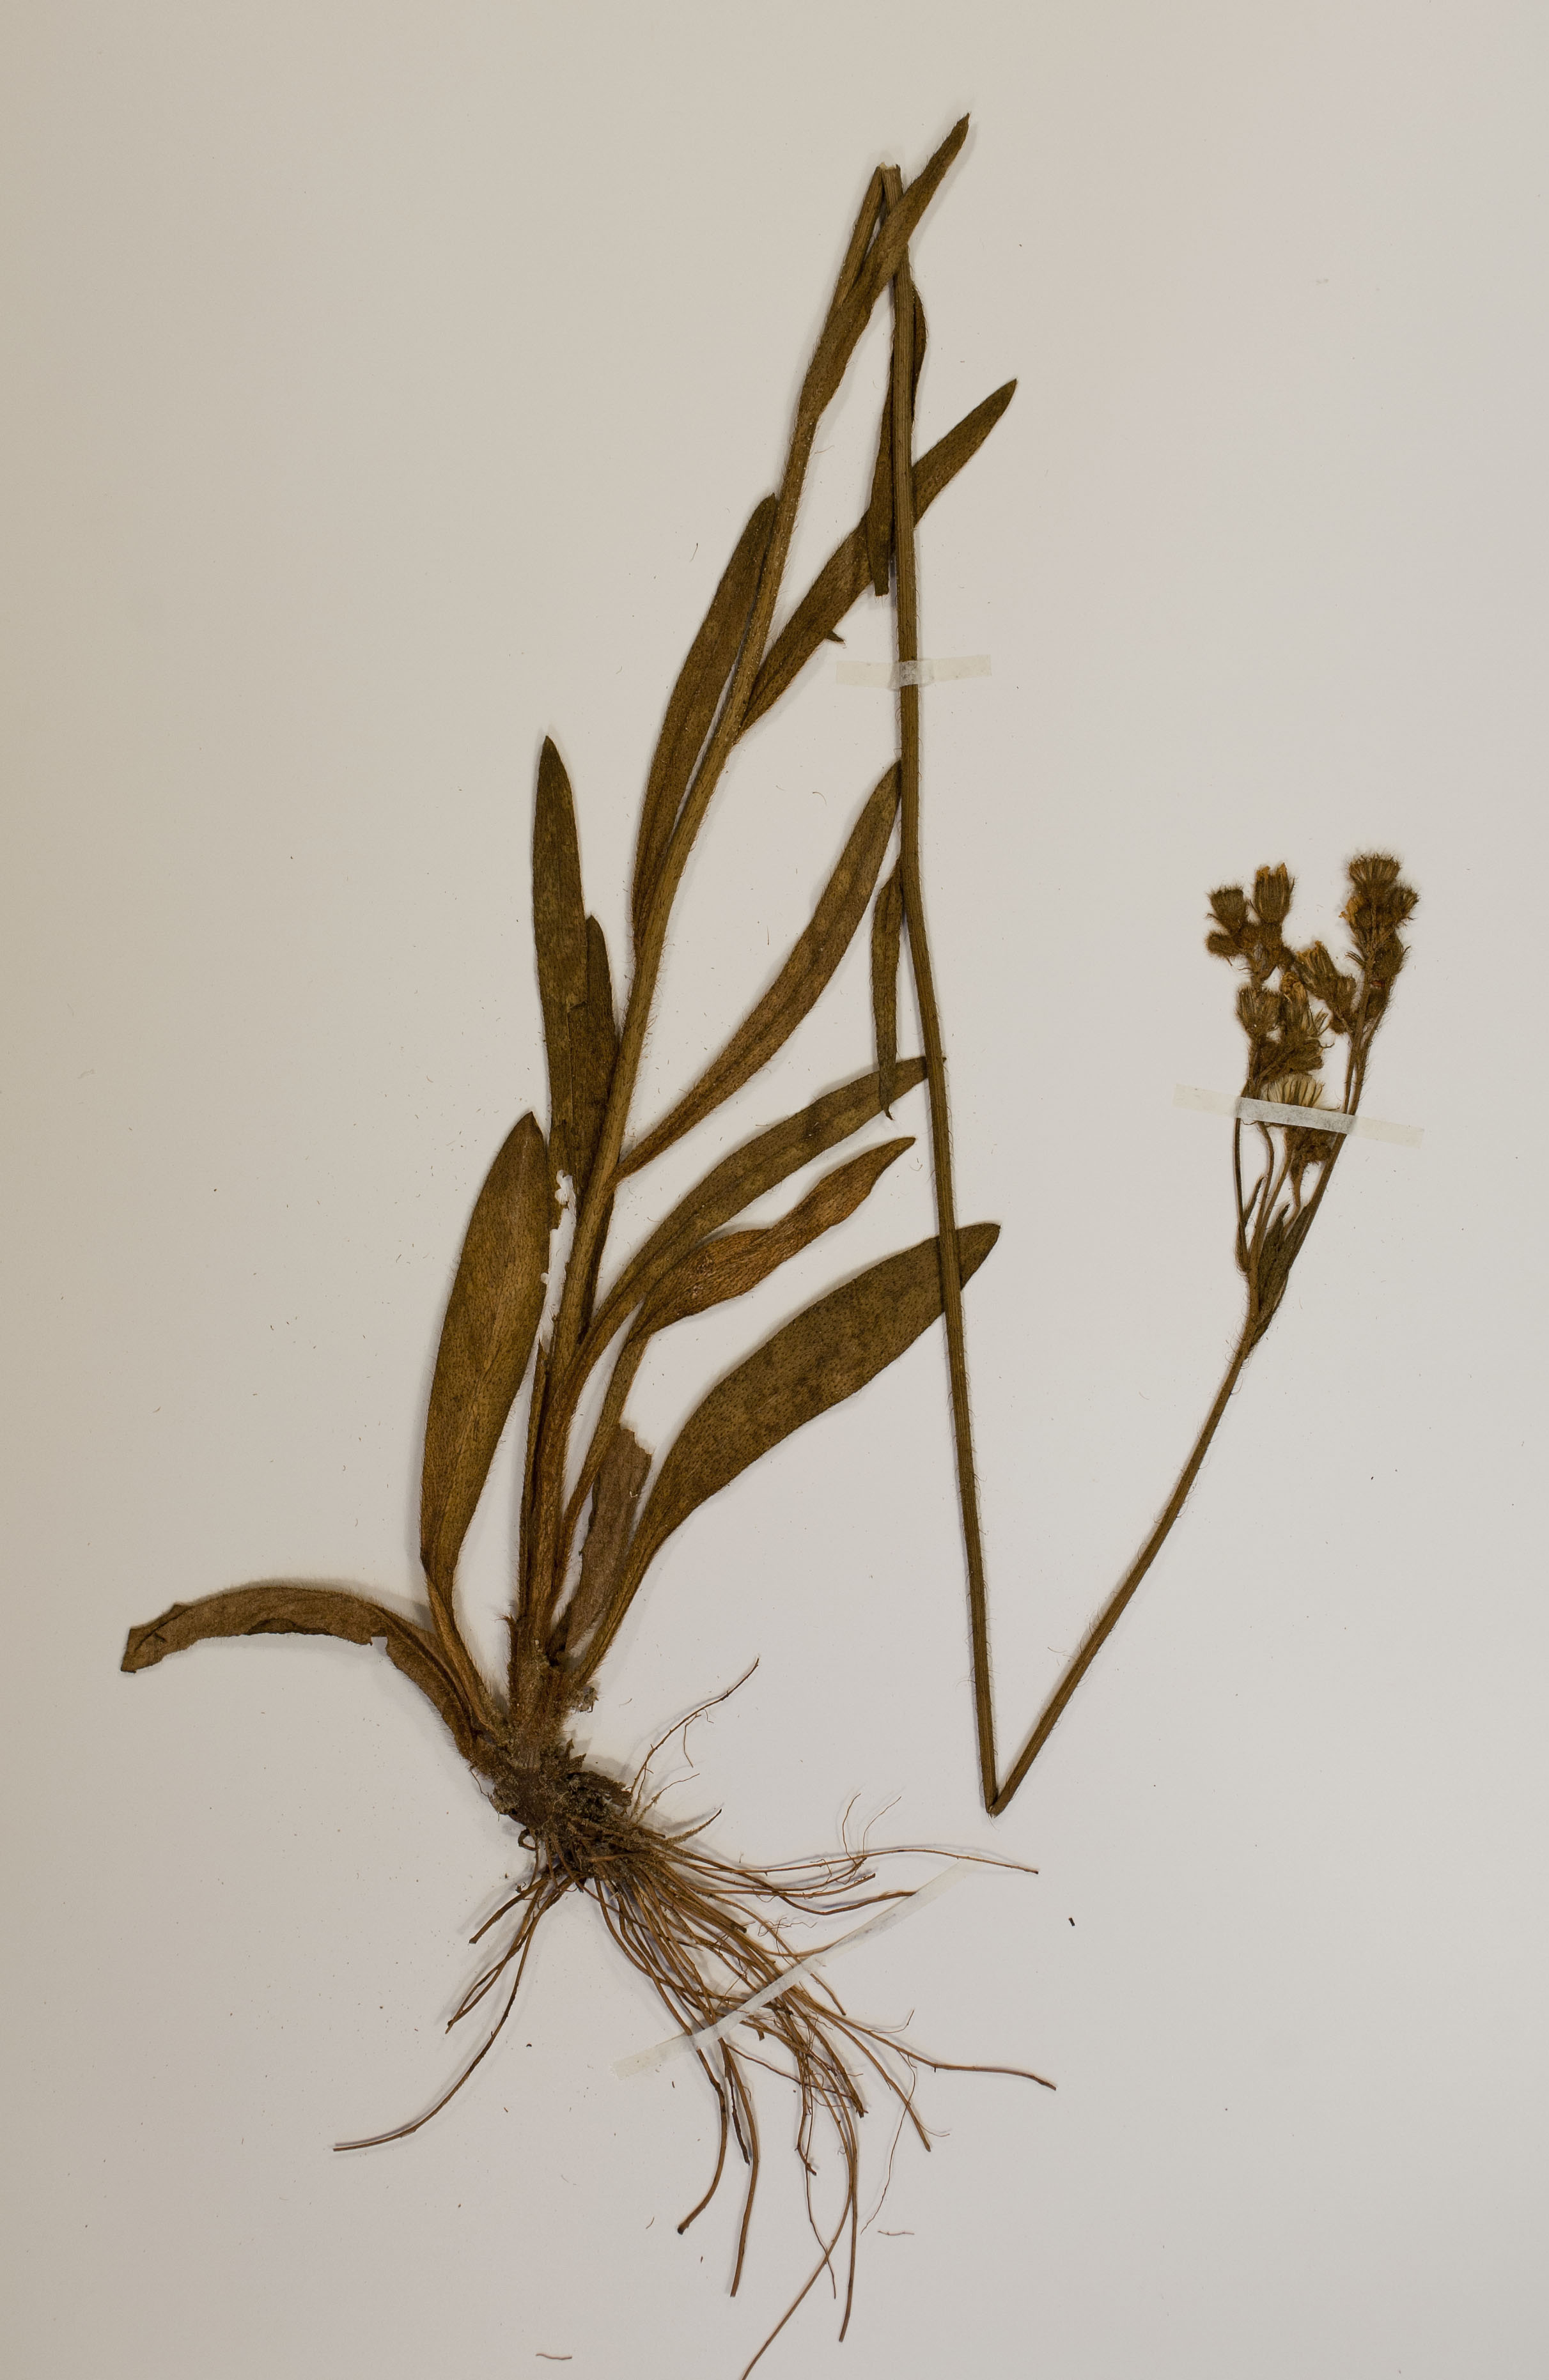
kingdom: Plantae
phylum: Tracheophyta
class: Magnoliopsida
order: Asterales
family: Asteraceae
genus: Pilosella
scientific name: Pilosella echioides
